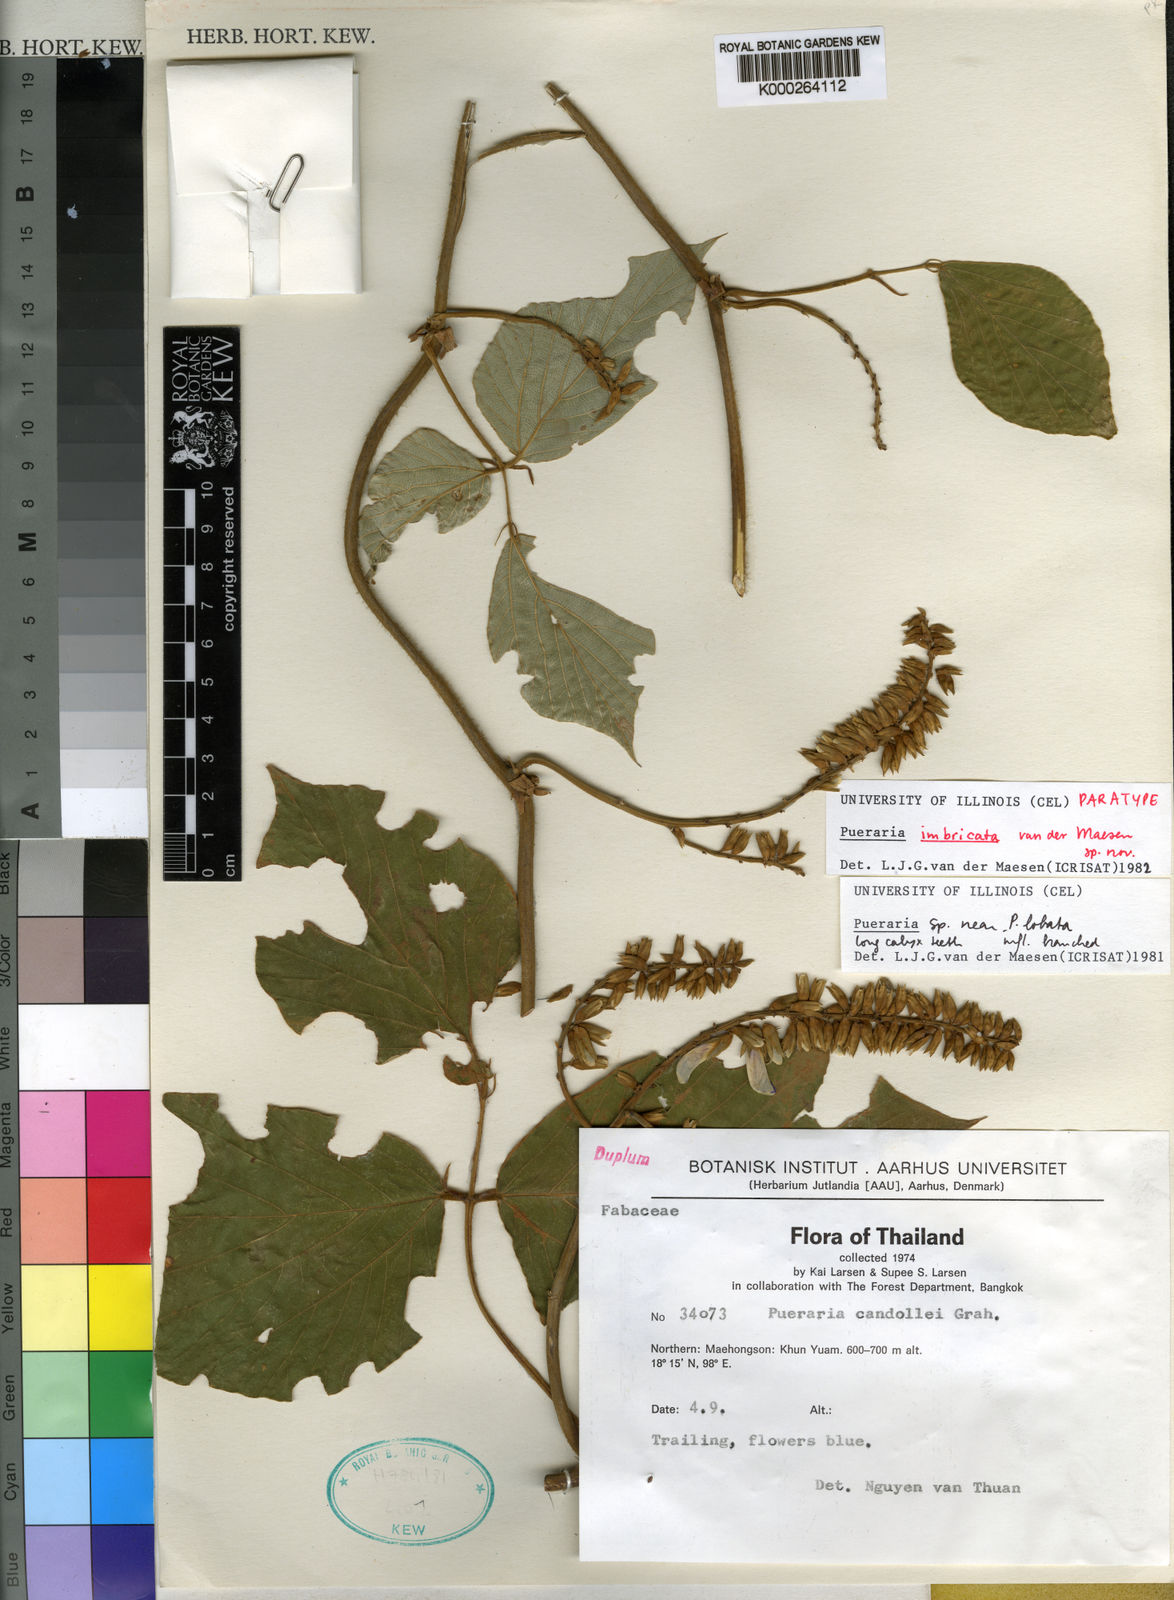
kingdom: Plantae
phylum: Tracheophyta
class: Magnoliopsida
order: Fabales
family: Fabaceae
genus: Pueraria
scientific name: Pueraria
